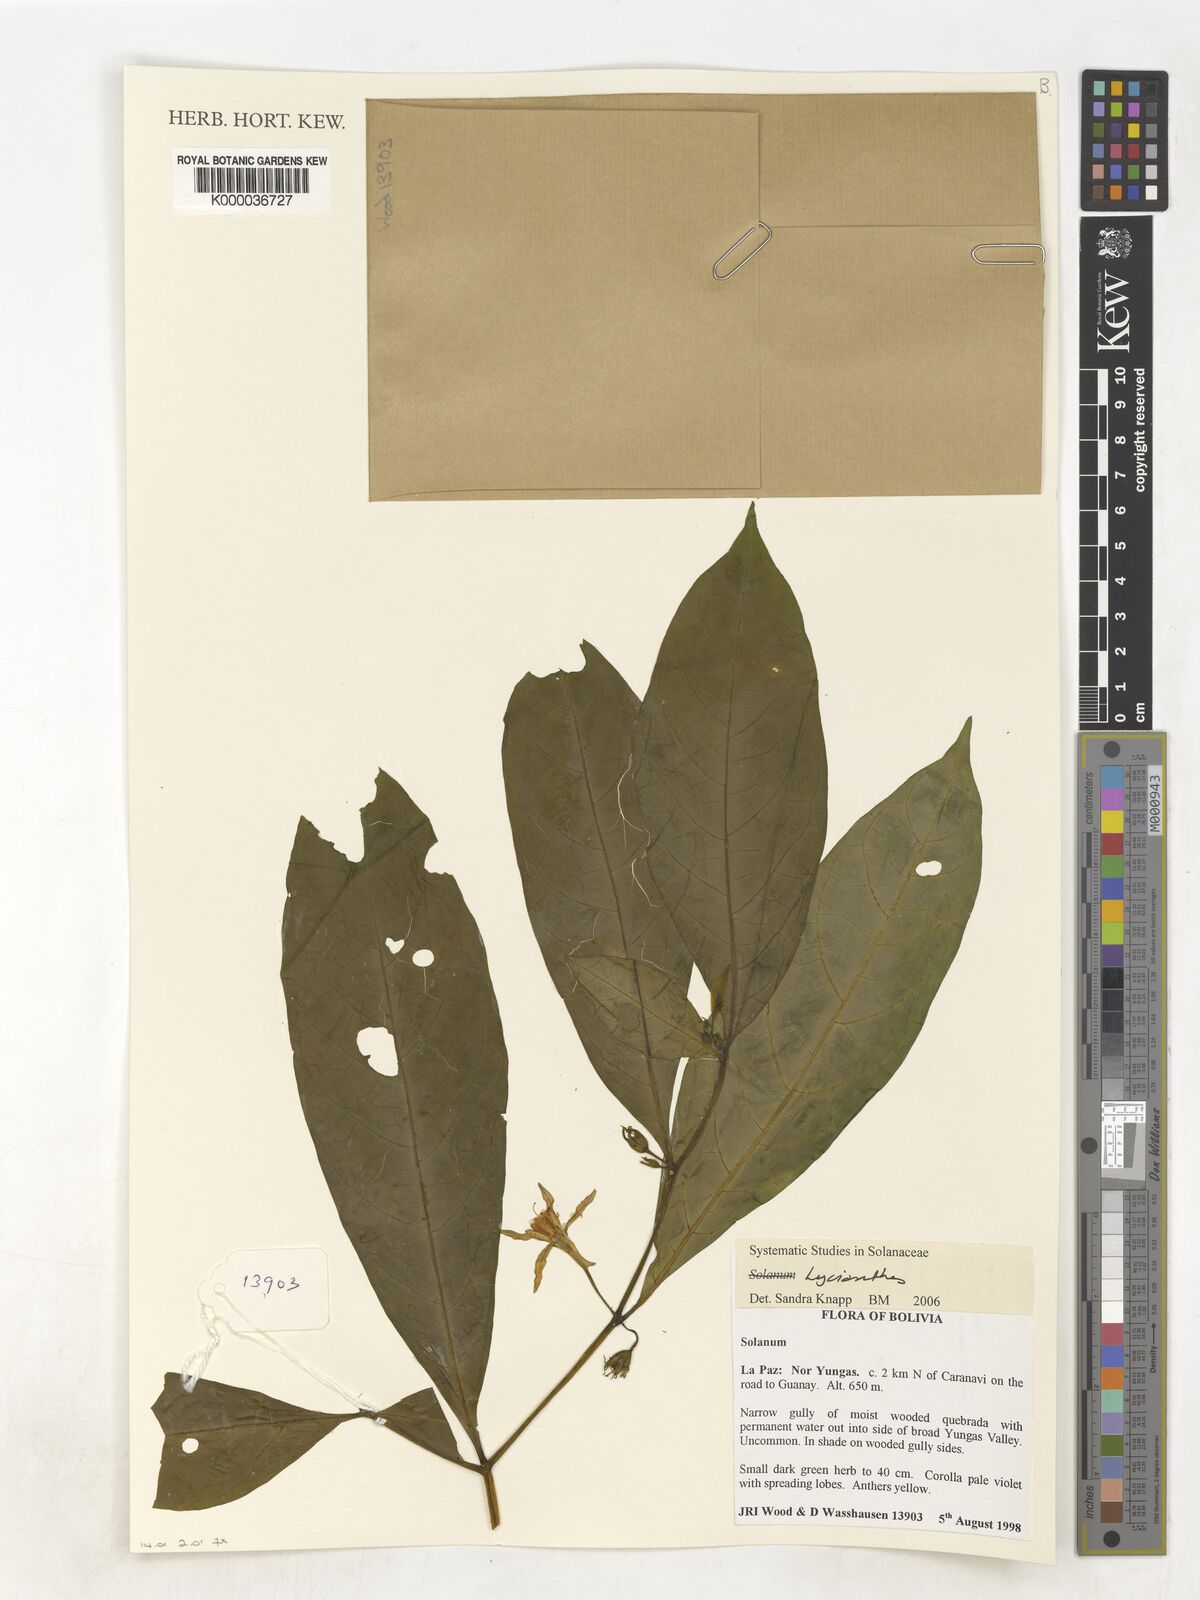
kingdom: Plantae
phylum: Tracheophyta
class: Magnoliopsida
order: Solanales
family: Solanaceae
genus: Lycianthes
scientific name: Lycianthes
